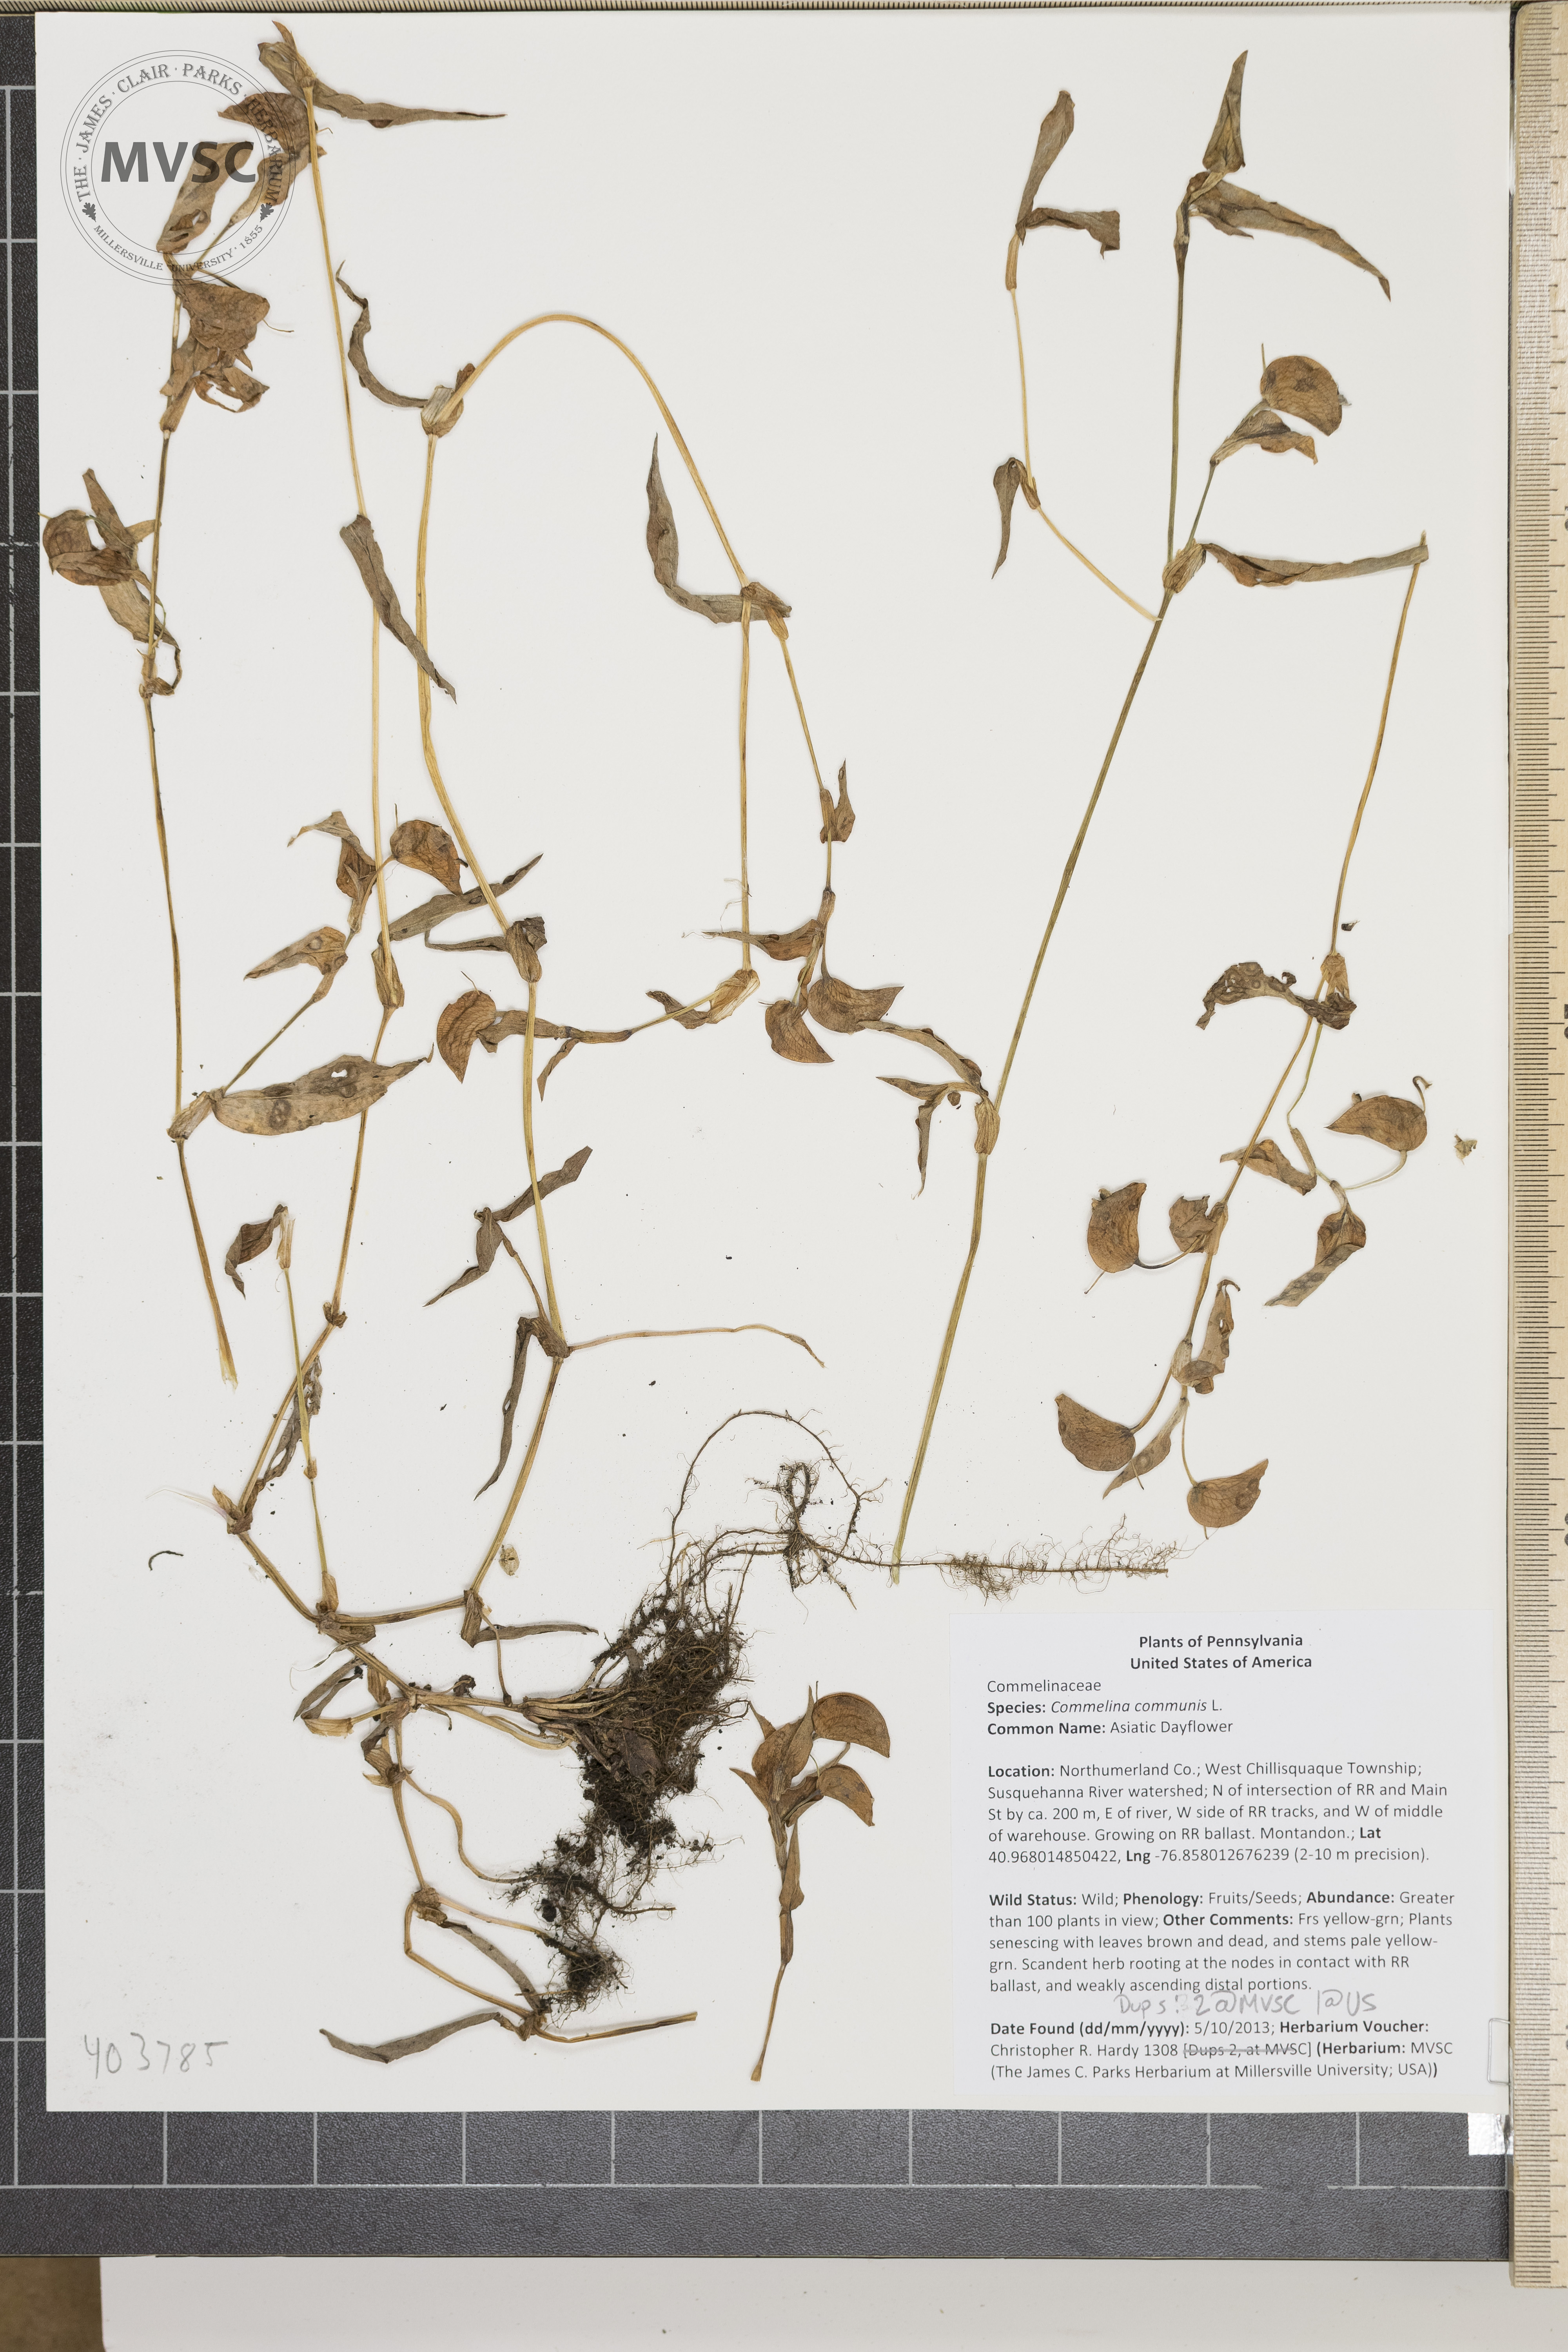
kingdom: Plantae
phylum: Tracheophyta
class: Liliopsida
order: Commelinales
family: Commelinaceae
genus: Commelina
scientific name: Commelina communis
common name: Asiatic Dayflower
